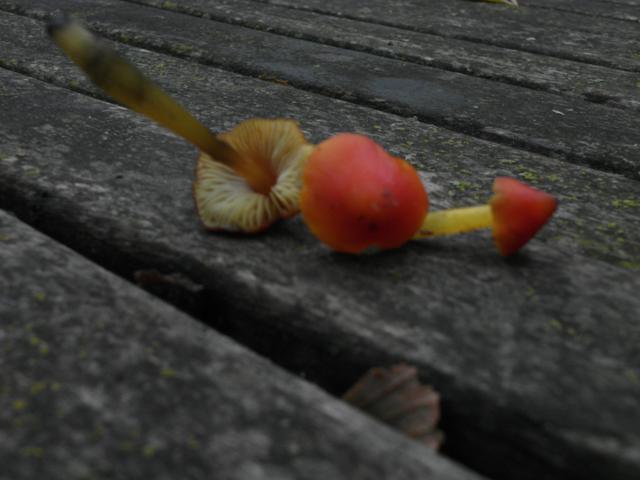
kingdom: Fungi
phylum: Basidiomycota
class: Agaricomycetes
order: Agaricales
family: Hygrophoraceae
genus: Hygrocybe
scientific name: Hygrocybe conica
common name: kegle-vokshat
